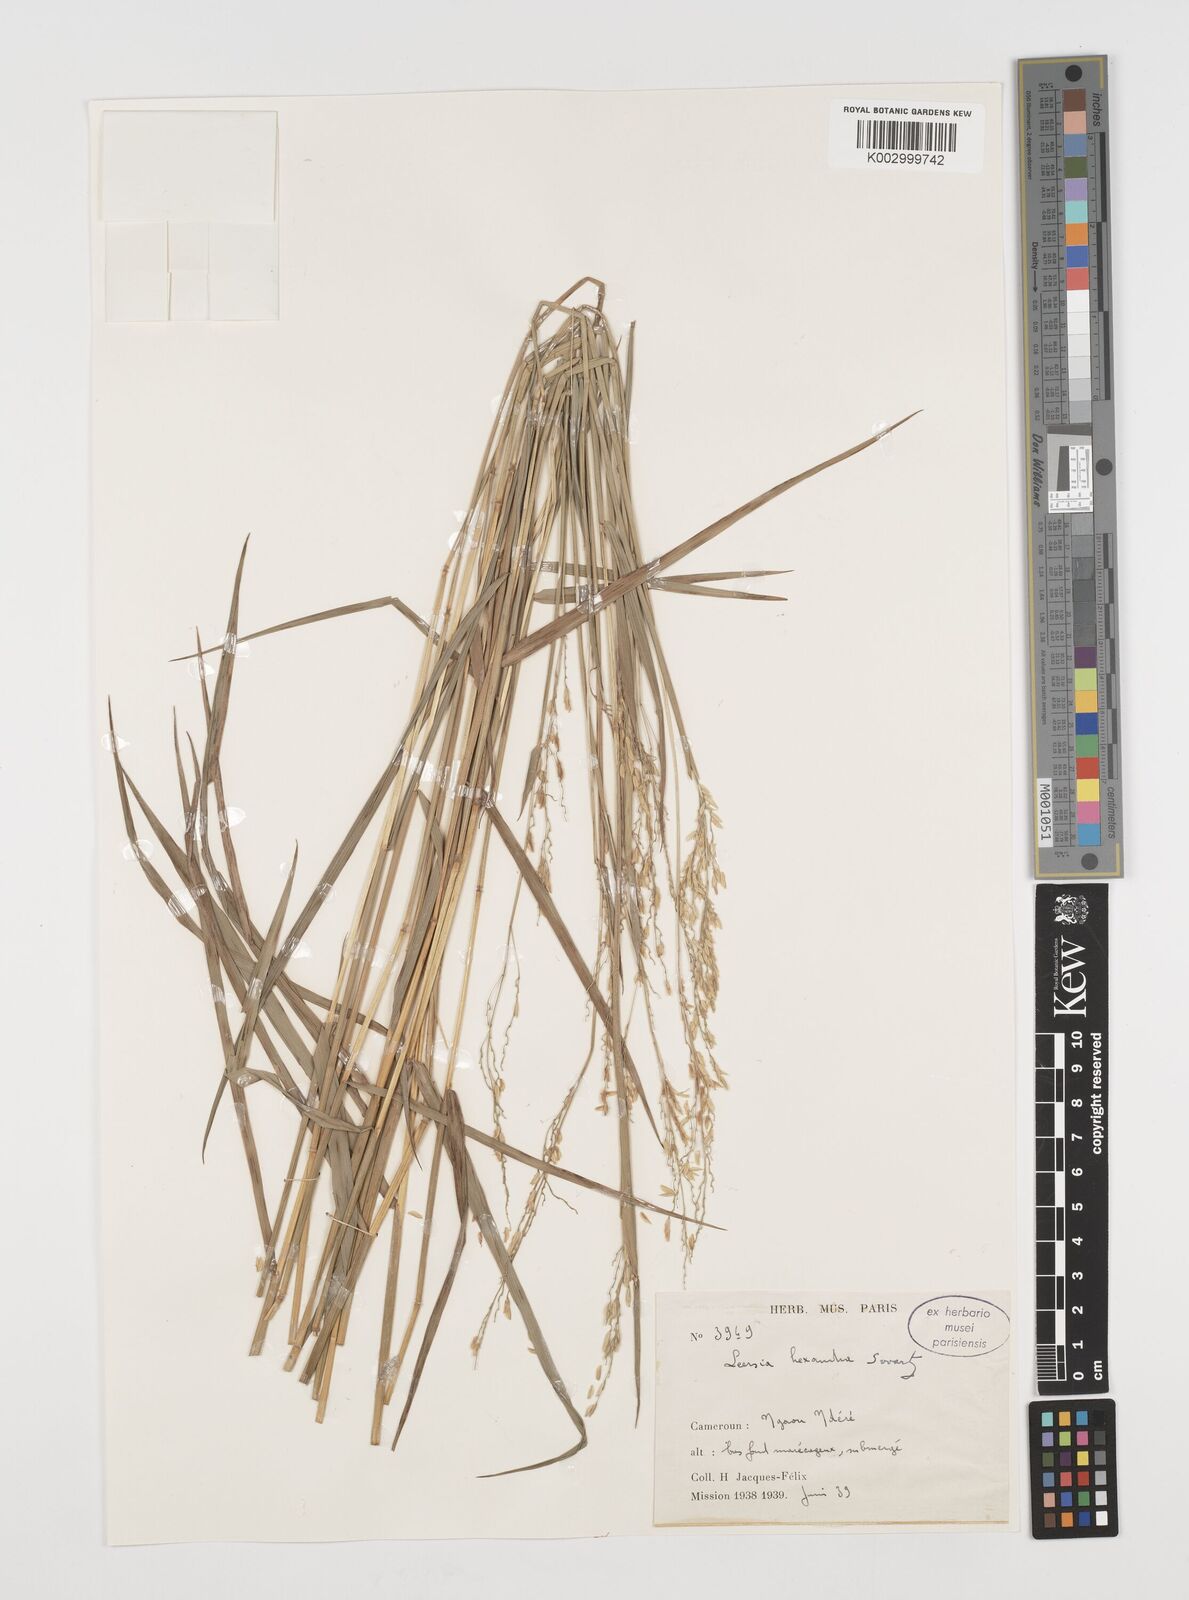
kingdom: Plantae
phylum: Tracheophyta
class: Liliopsida
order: Poales
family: Poaceae
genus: Leersia
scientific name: Leersia hexandra
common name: Southern cut grass
